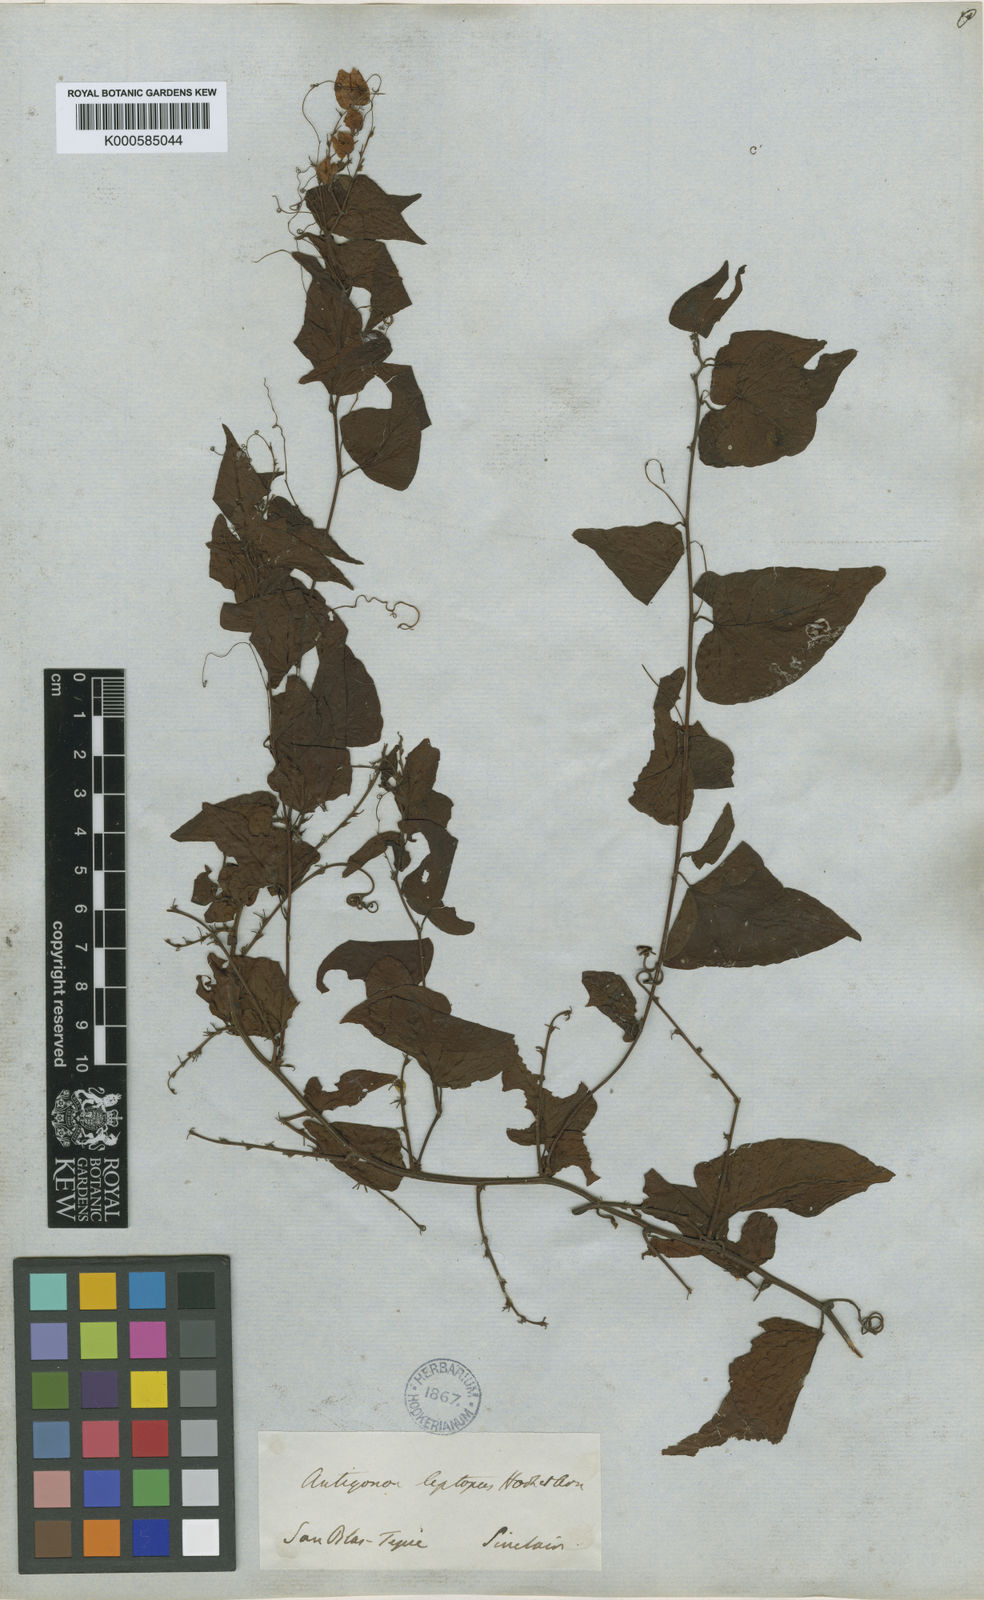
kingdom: Plantae
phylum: Tracheophyta
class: Magnoliopsida
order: Caryophyllales
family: Polygonaceae
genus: Antigonon
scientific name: Antigonon leptopus
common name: Coral vine
